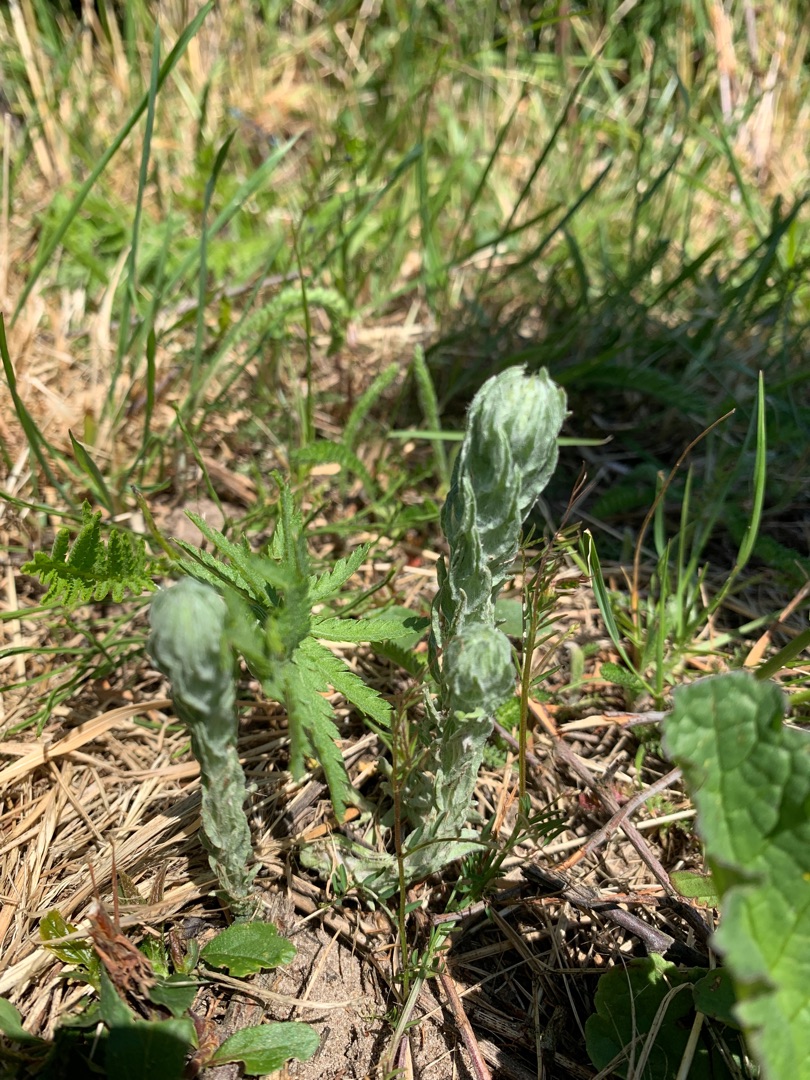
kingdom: Plantae
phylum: Tracheophyta
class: Magnoliopsida
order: Asterales
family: Asteraceae
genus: Filago
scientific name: Filago germanica
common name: Kugle-museurt
